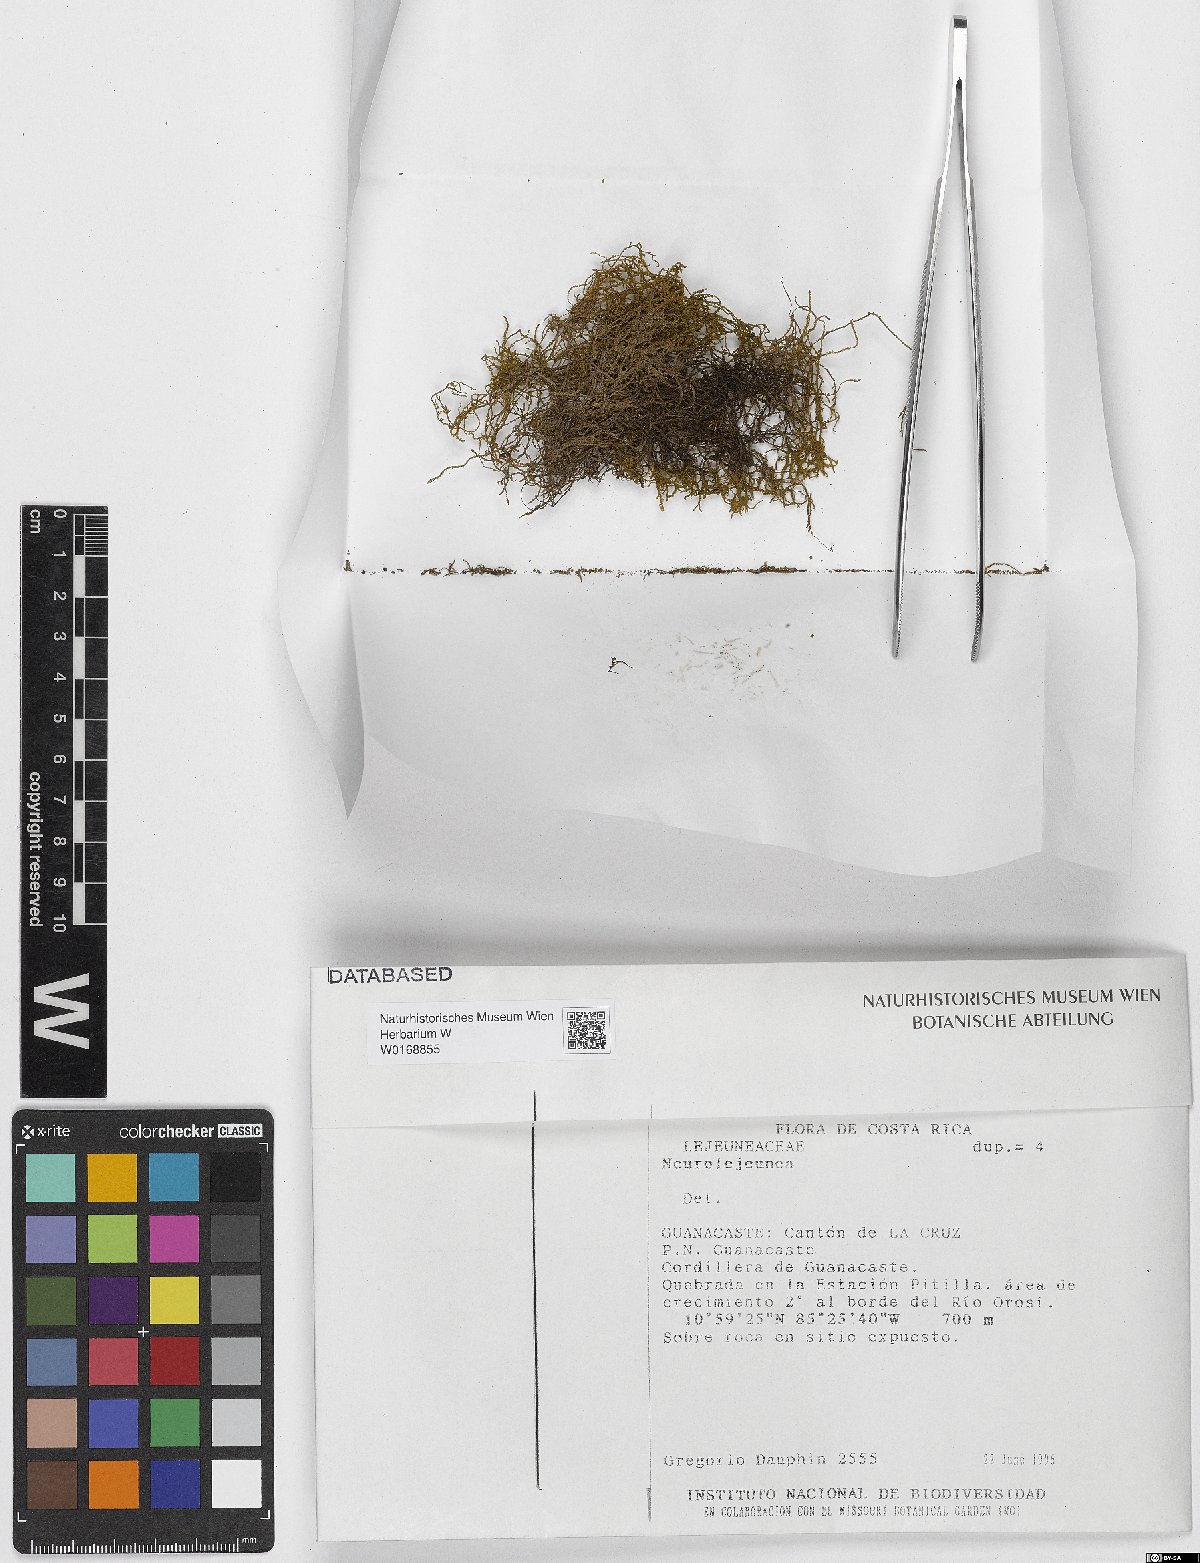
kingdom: Plantae
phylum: Marchantiophyta
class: Jungermanniopsida
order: Porellales
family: Lejeuneaceae
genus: Neurolejeunea
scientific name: Neurolejeunea
